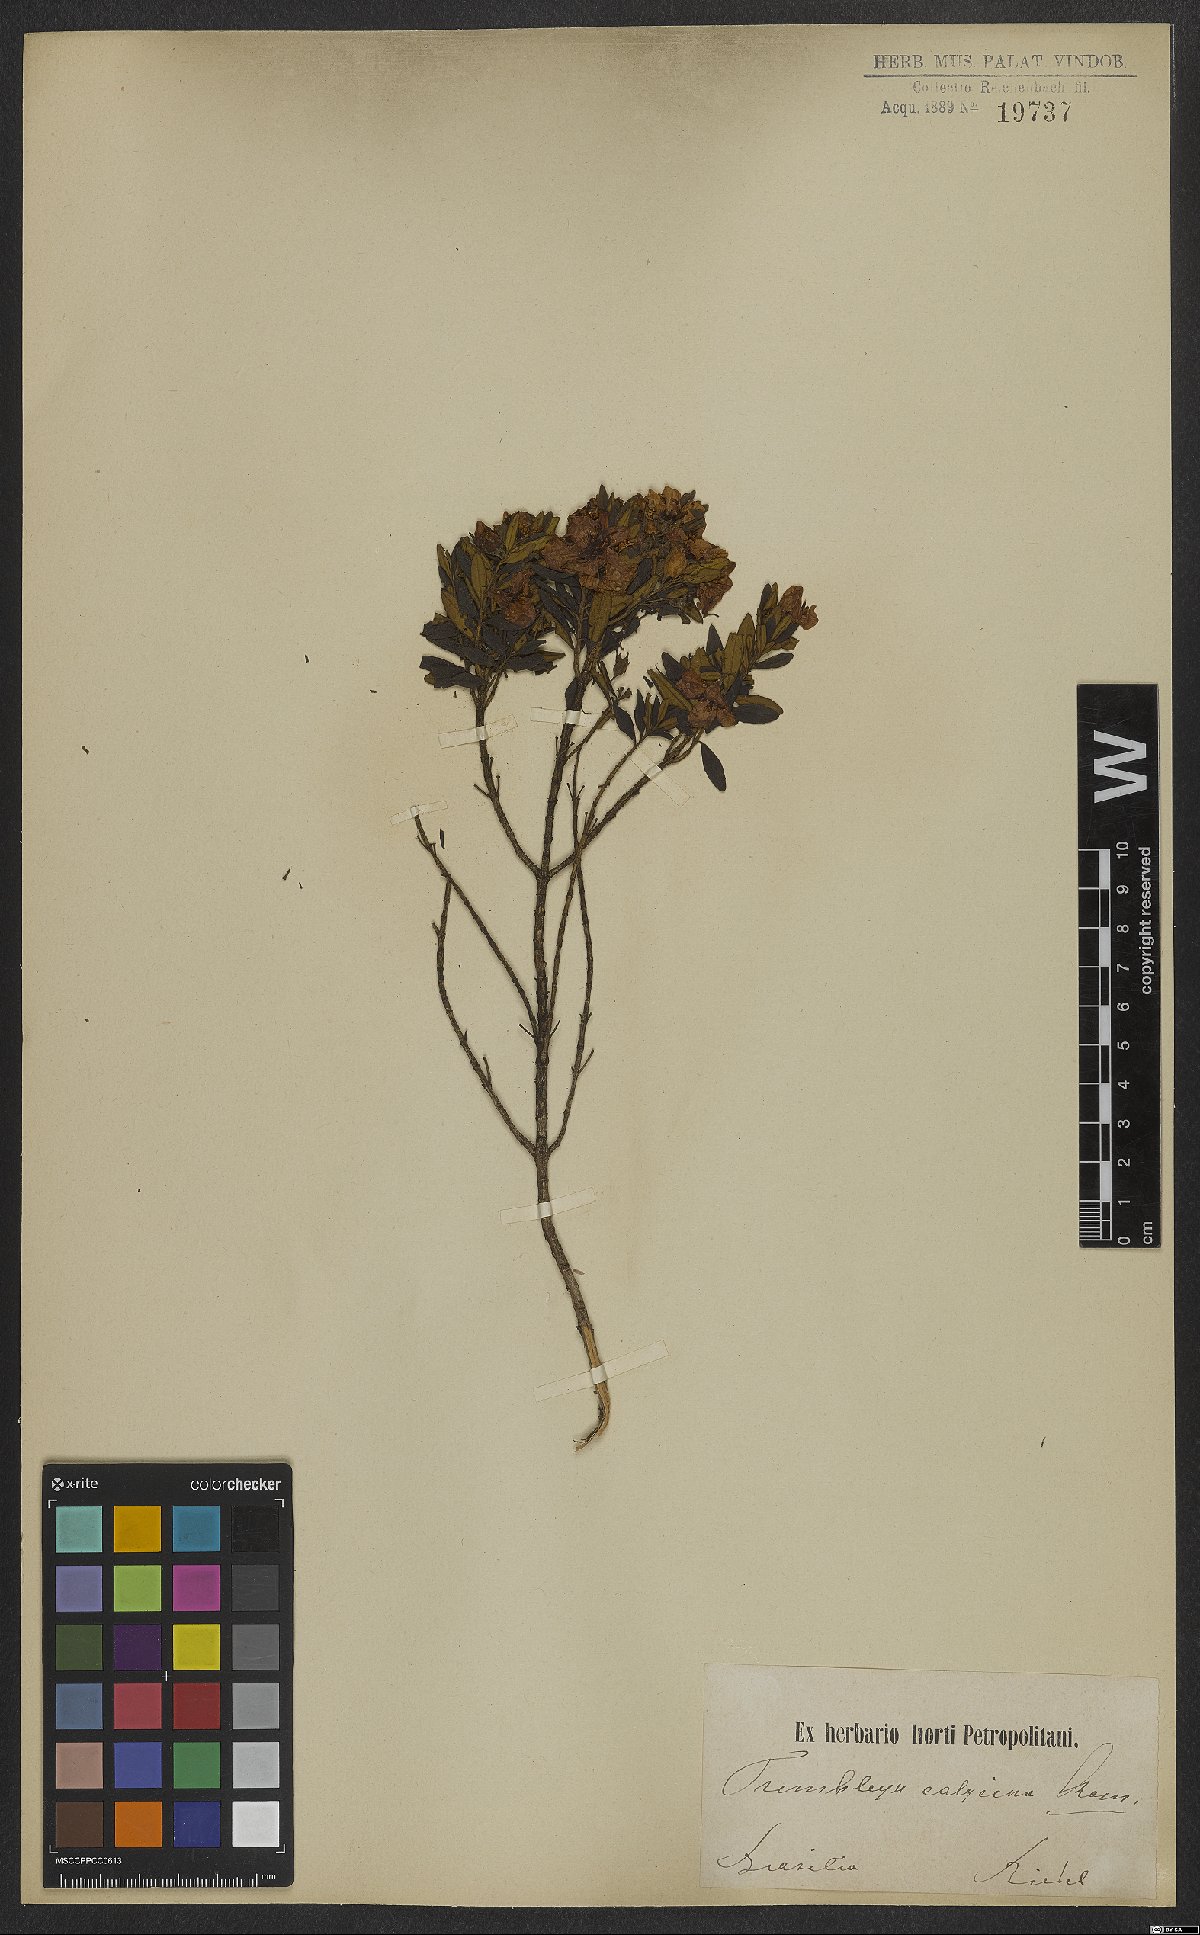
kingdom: Plantae
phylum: Tracheophyta
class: Magnoliopsida
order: Myrtales
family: Melastomataceae
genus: Microlicia
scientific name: Microlicia calycina
